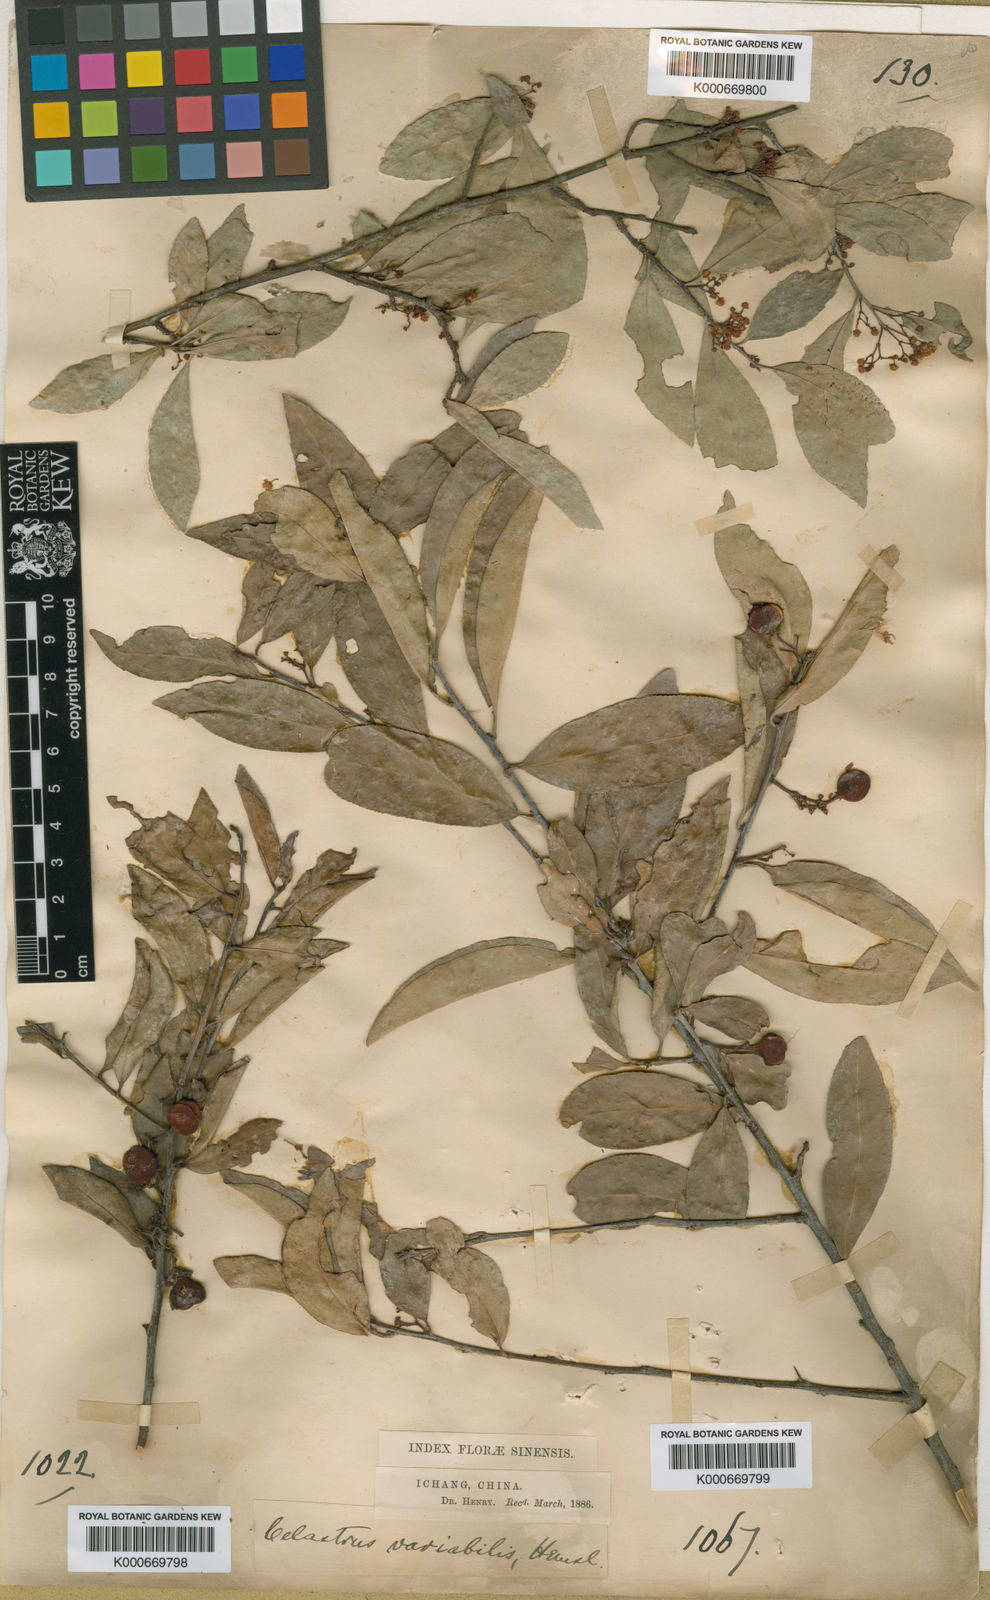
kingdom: Plantae
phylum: Tracheophyta
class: Magnoliopsida
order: Celastrales
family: Celastraceae
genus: Gymnosporia
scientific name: Gymnosporia variabilis
